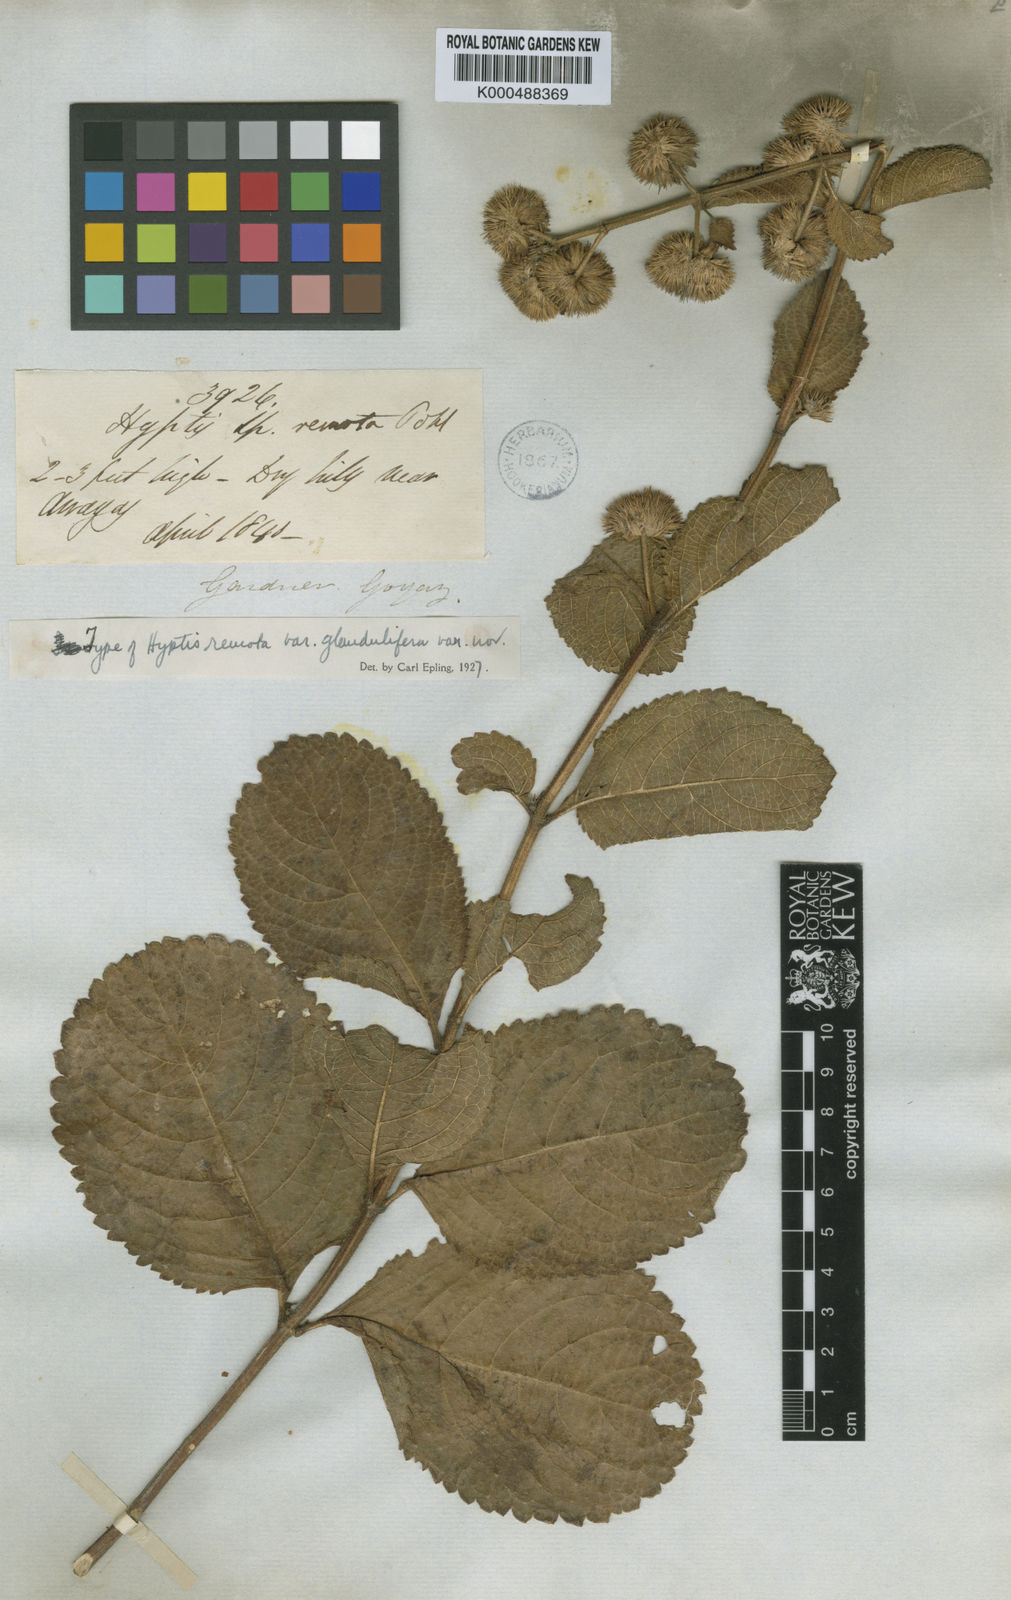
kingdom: Plantae
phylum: Tracheophyta
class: Magnoliopsida
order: Lamiales
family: Lamiaceae
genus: Hyptis
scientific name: Hyptis remota
